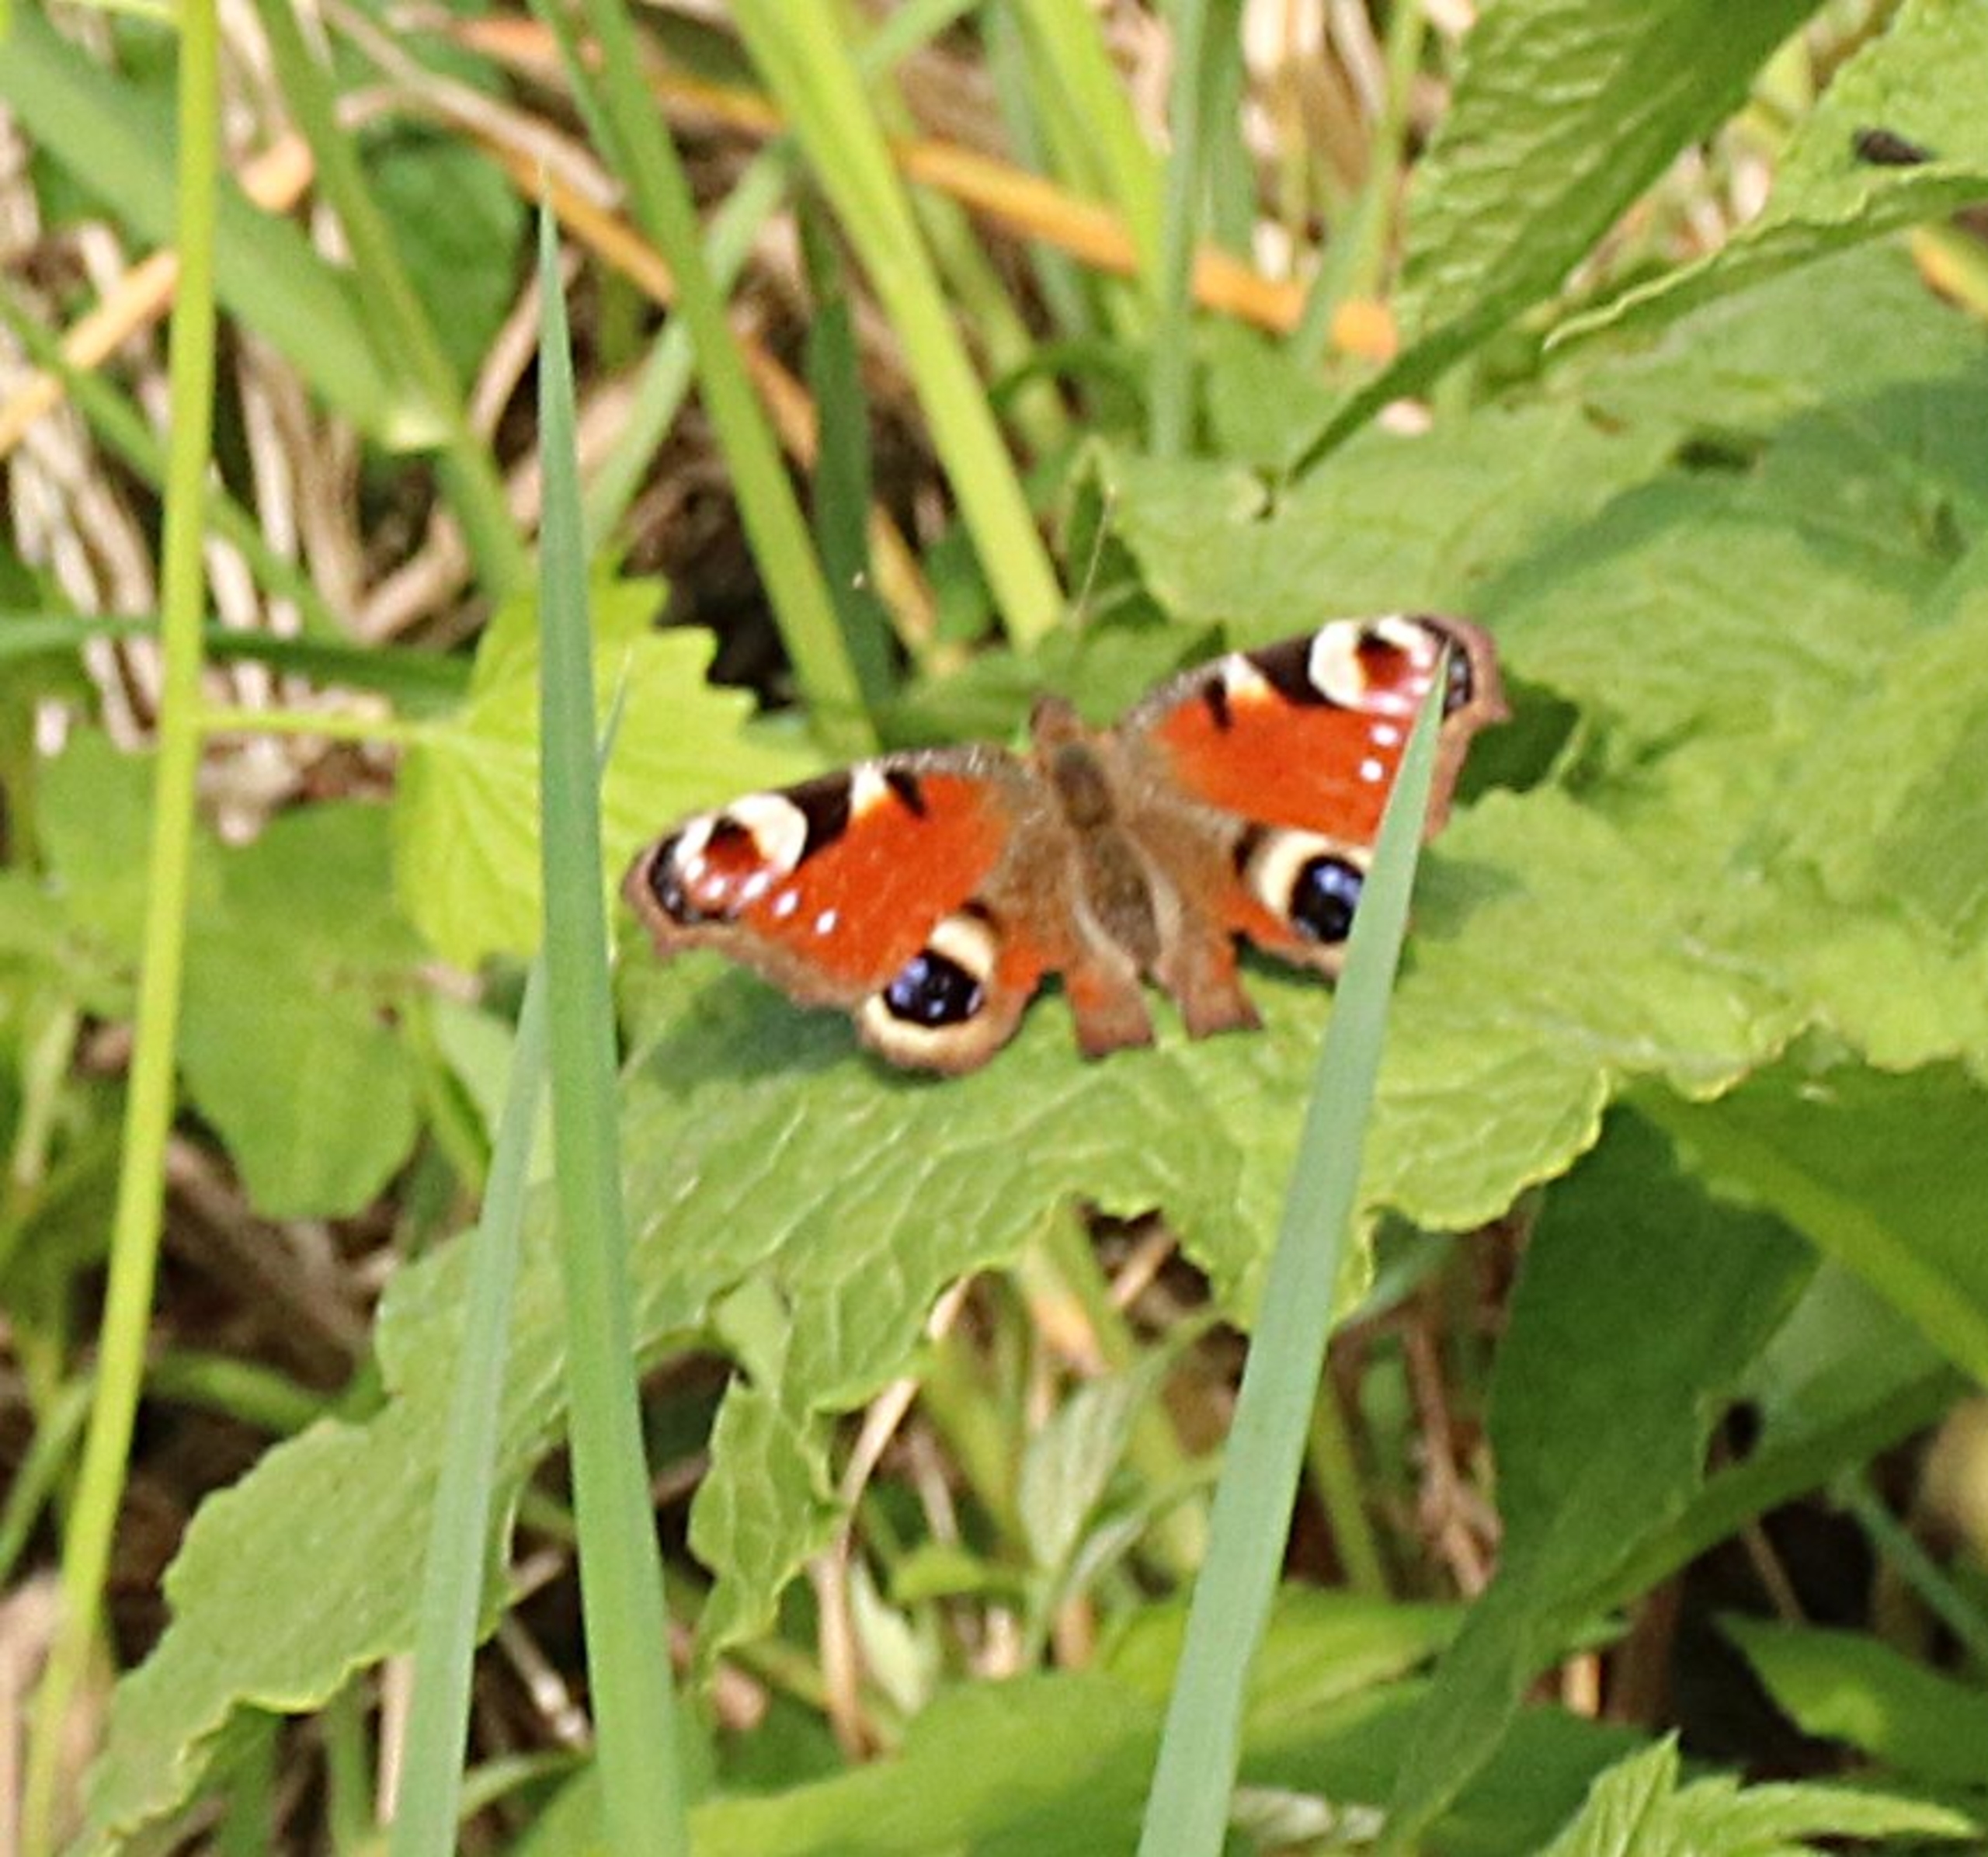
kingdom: Animalia
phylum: Arthropoda
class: Insecta
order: Lepidoptera
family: Nymphalidae
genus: Aglais
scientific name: Aglais io
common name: Dagpåfugleøje
